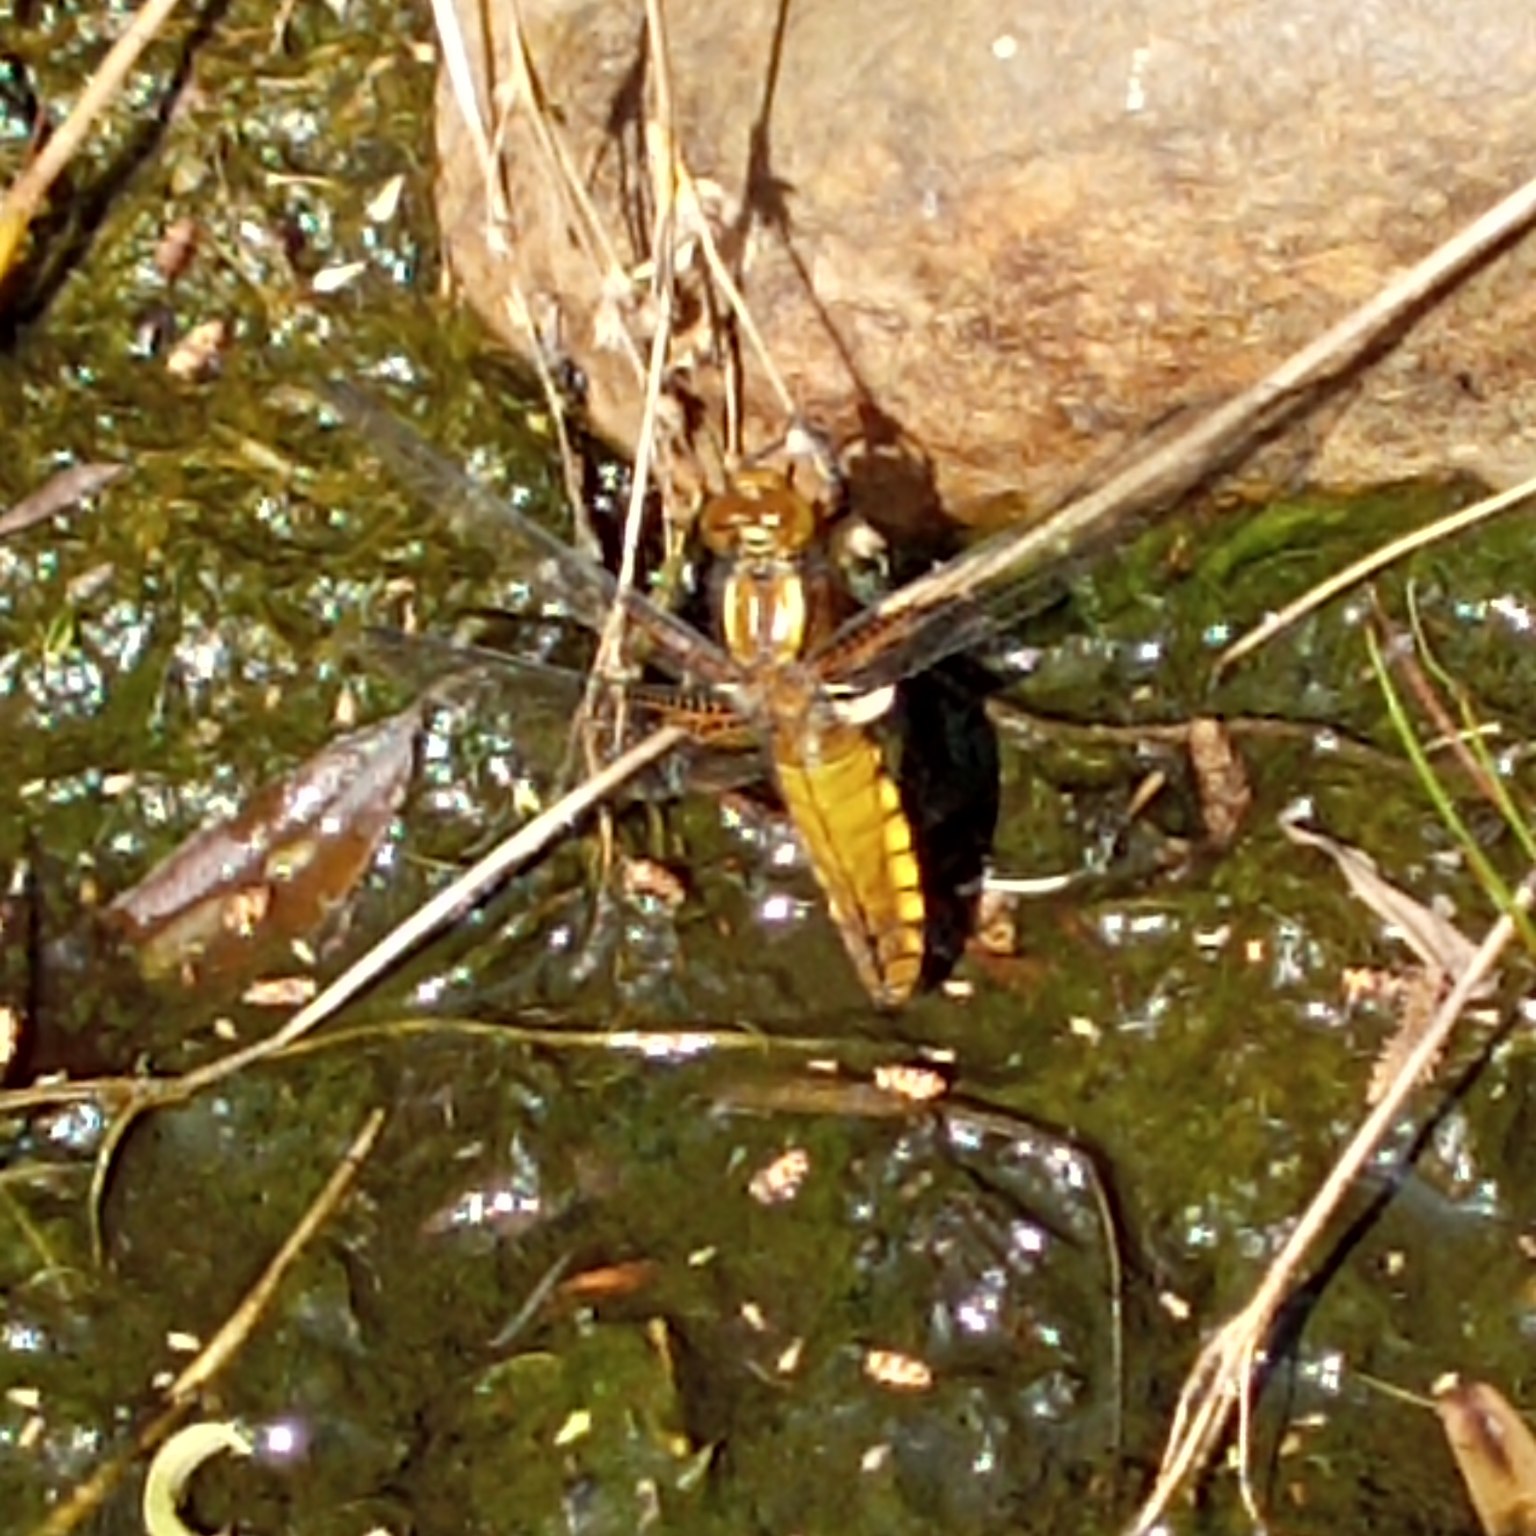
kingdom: Animalia
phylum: Arthropoda
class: Insecta
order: Odonata
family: Libellulidae
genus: Libellula
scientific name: Libellula depressa
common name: Blå libel
